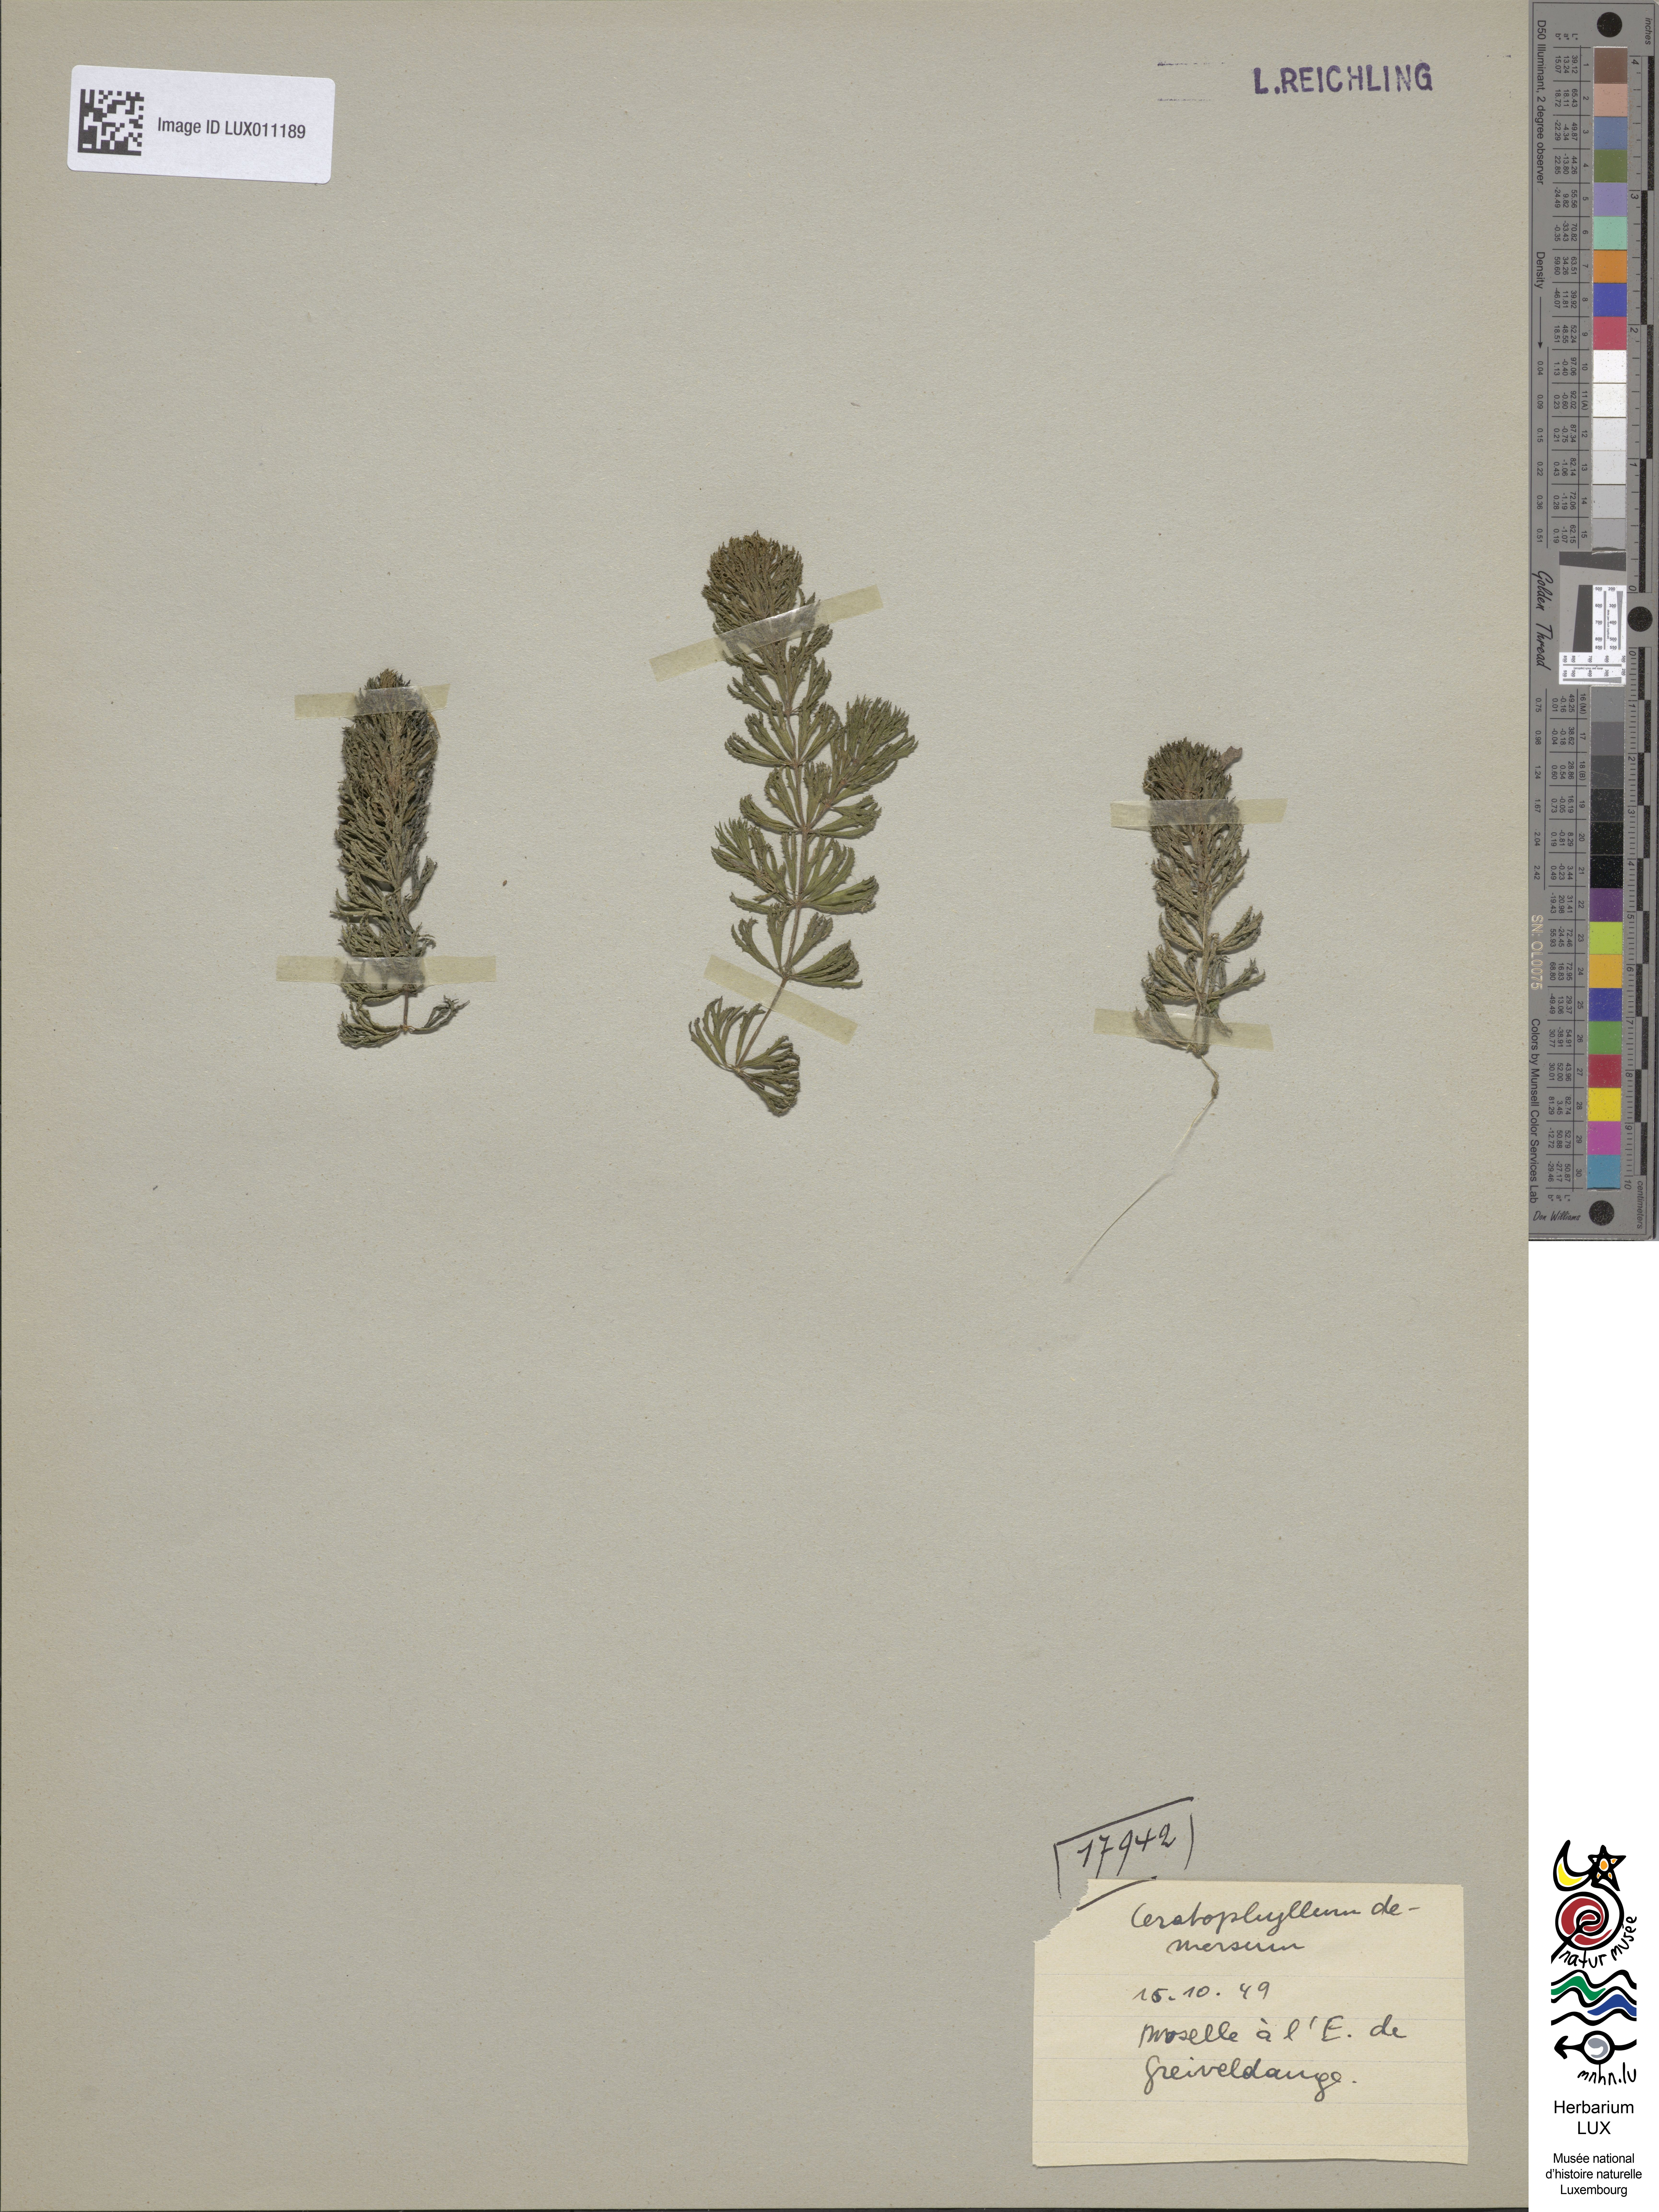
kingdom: Plantae
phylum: Tracheophyta
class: Magnoliopsida
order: Ceratophyllales
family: Ceratophyllaceae
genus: Ceratophyllum
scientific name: Ceratophyllum demersum
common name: Rigid hornwort
